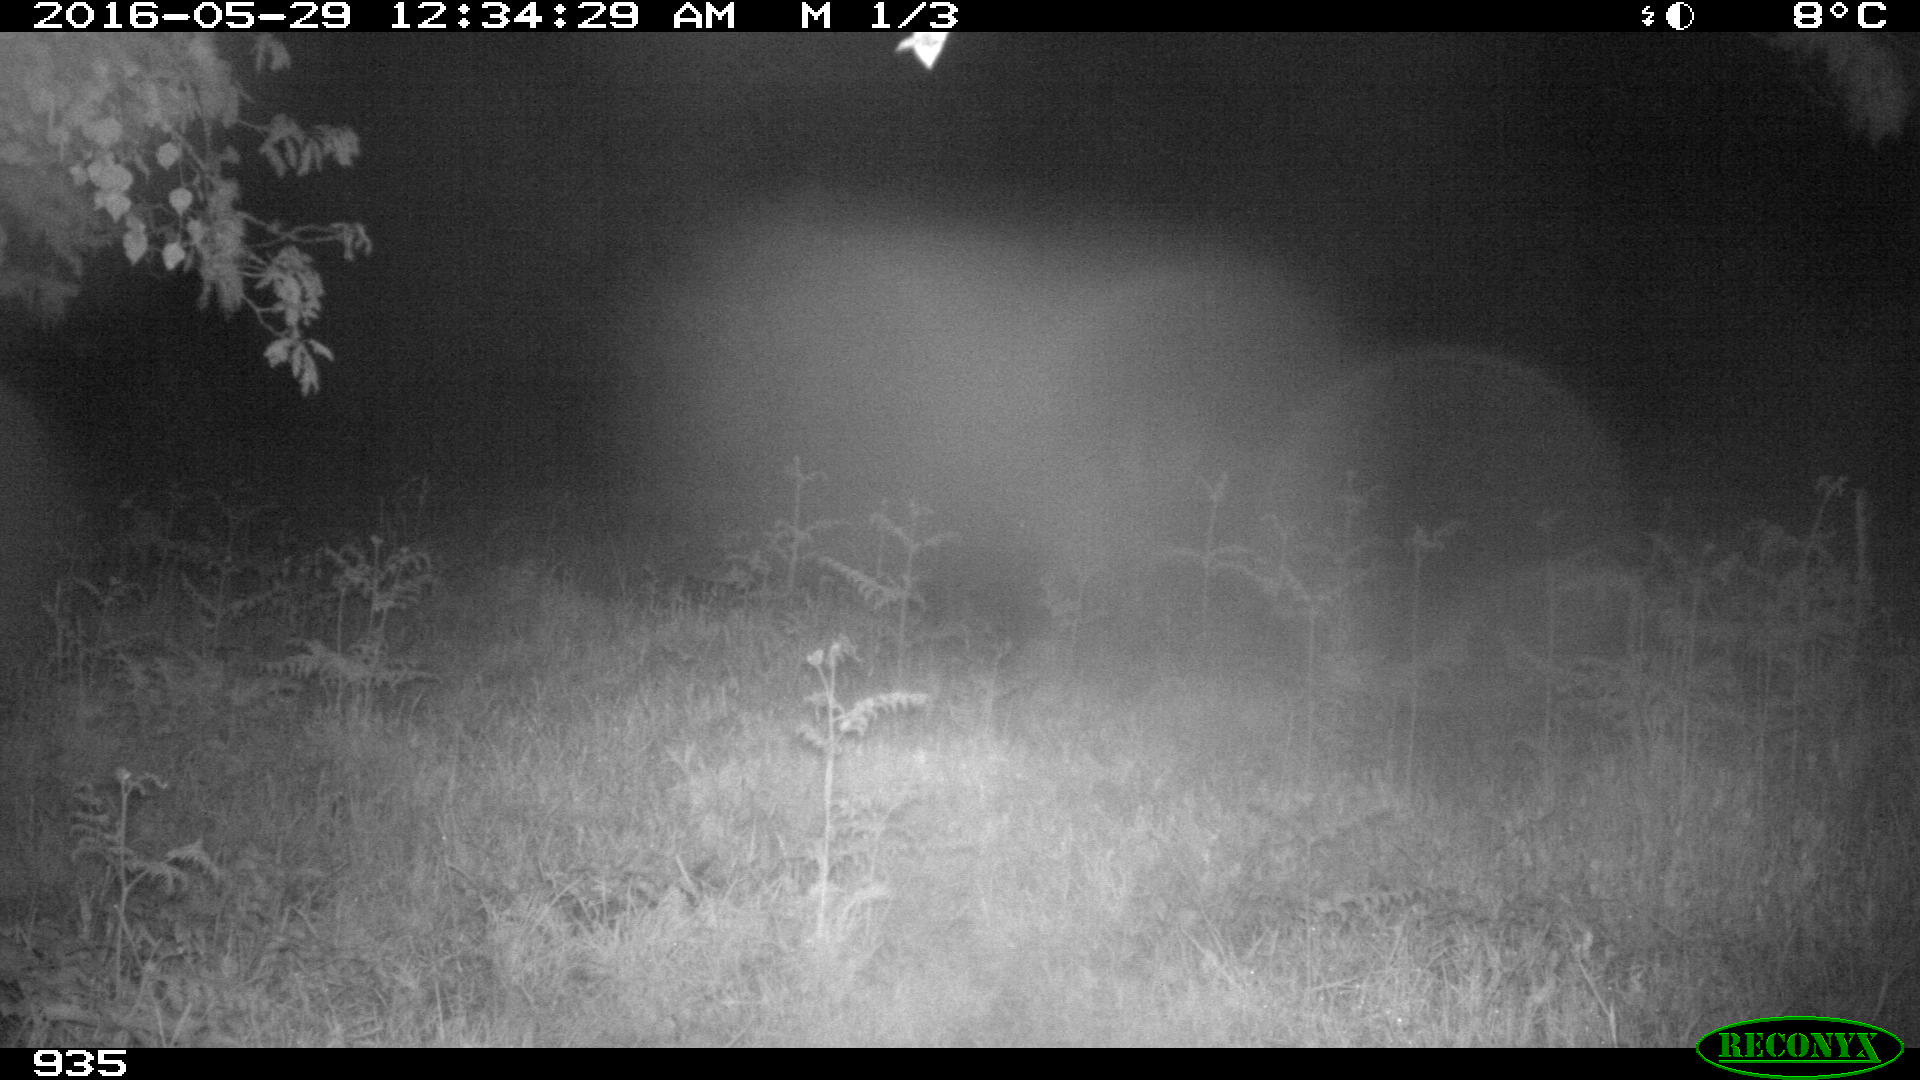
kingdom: Animalia
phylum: Chordata
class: Mammalia
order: Perissodactyla
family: Equidae
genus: Equus
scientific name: Equus caballus
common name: Horse
